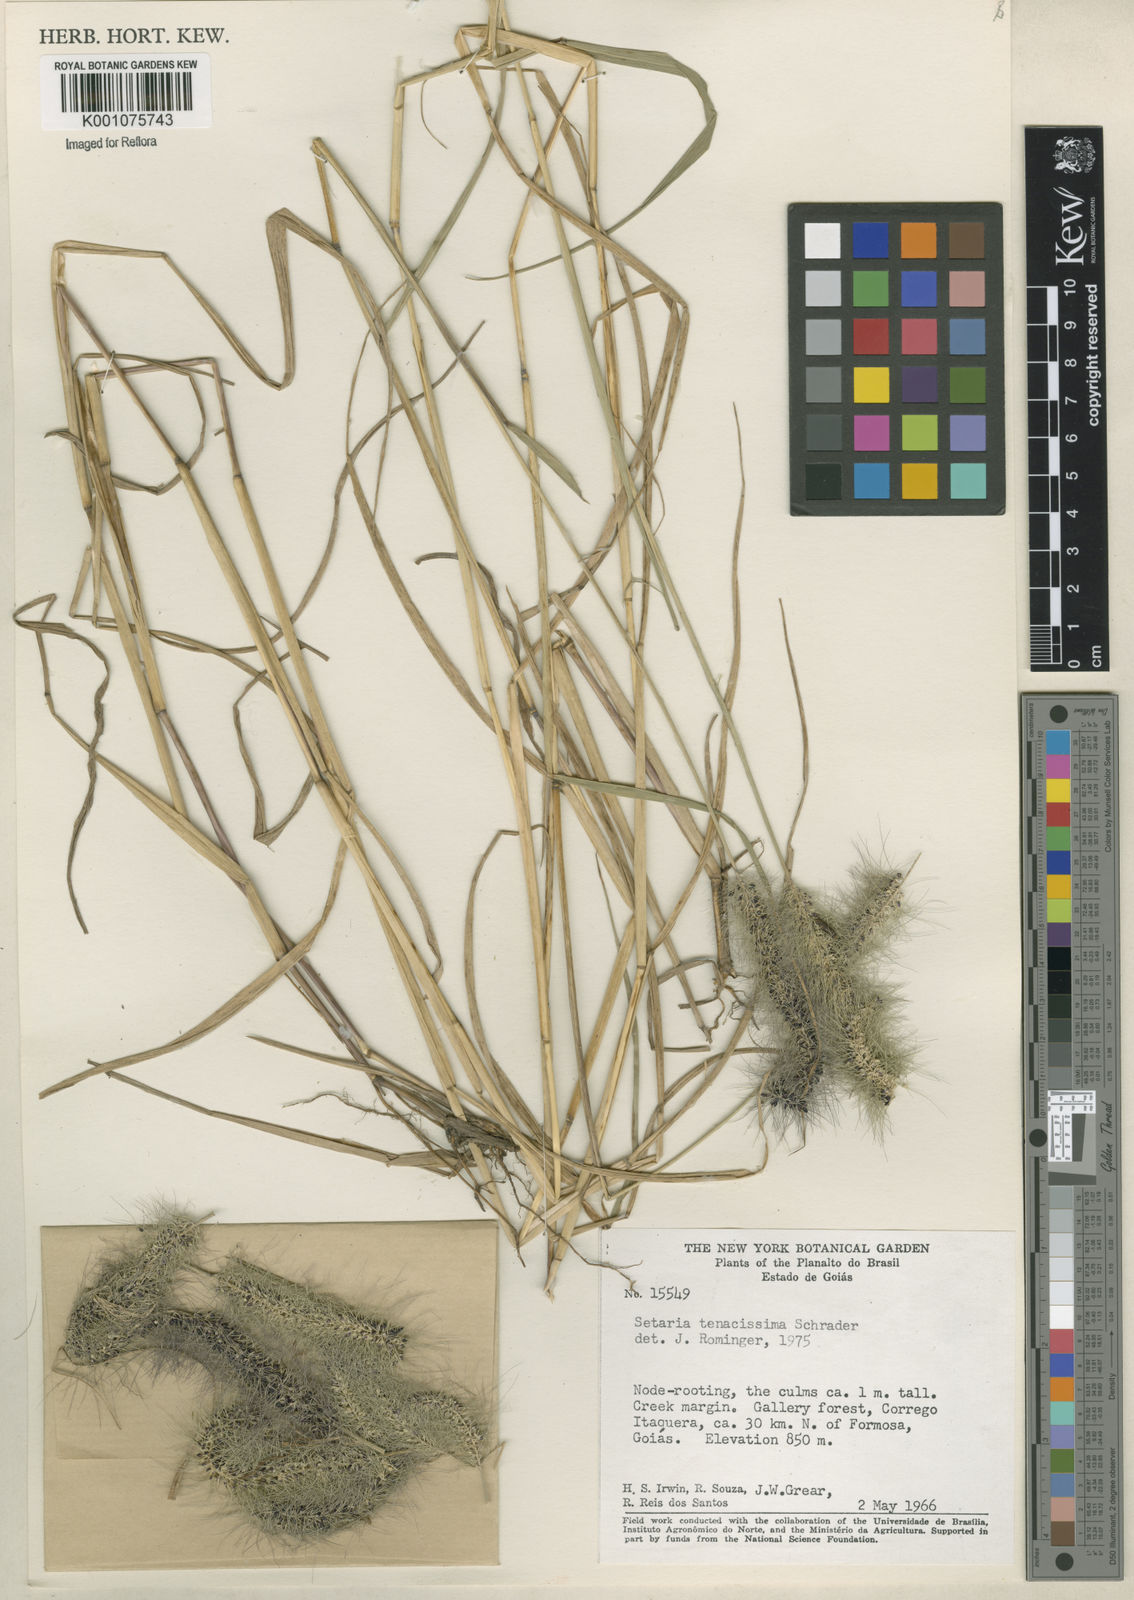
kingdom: Plantae
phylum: Tracheophyta
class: Liliopsida
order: Poales
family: Poaceae
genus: Setaria
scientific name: Setaria tenacissima
